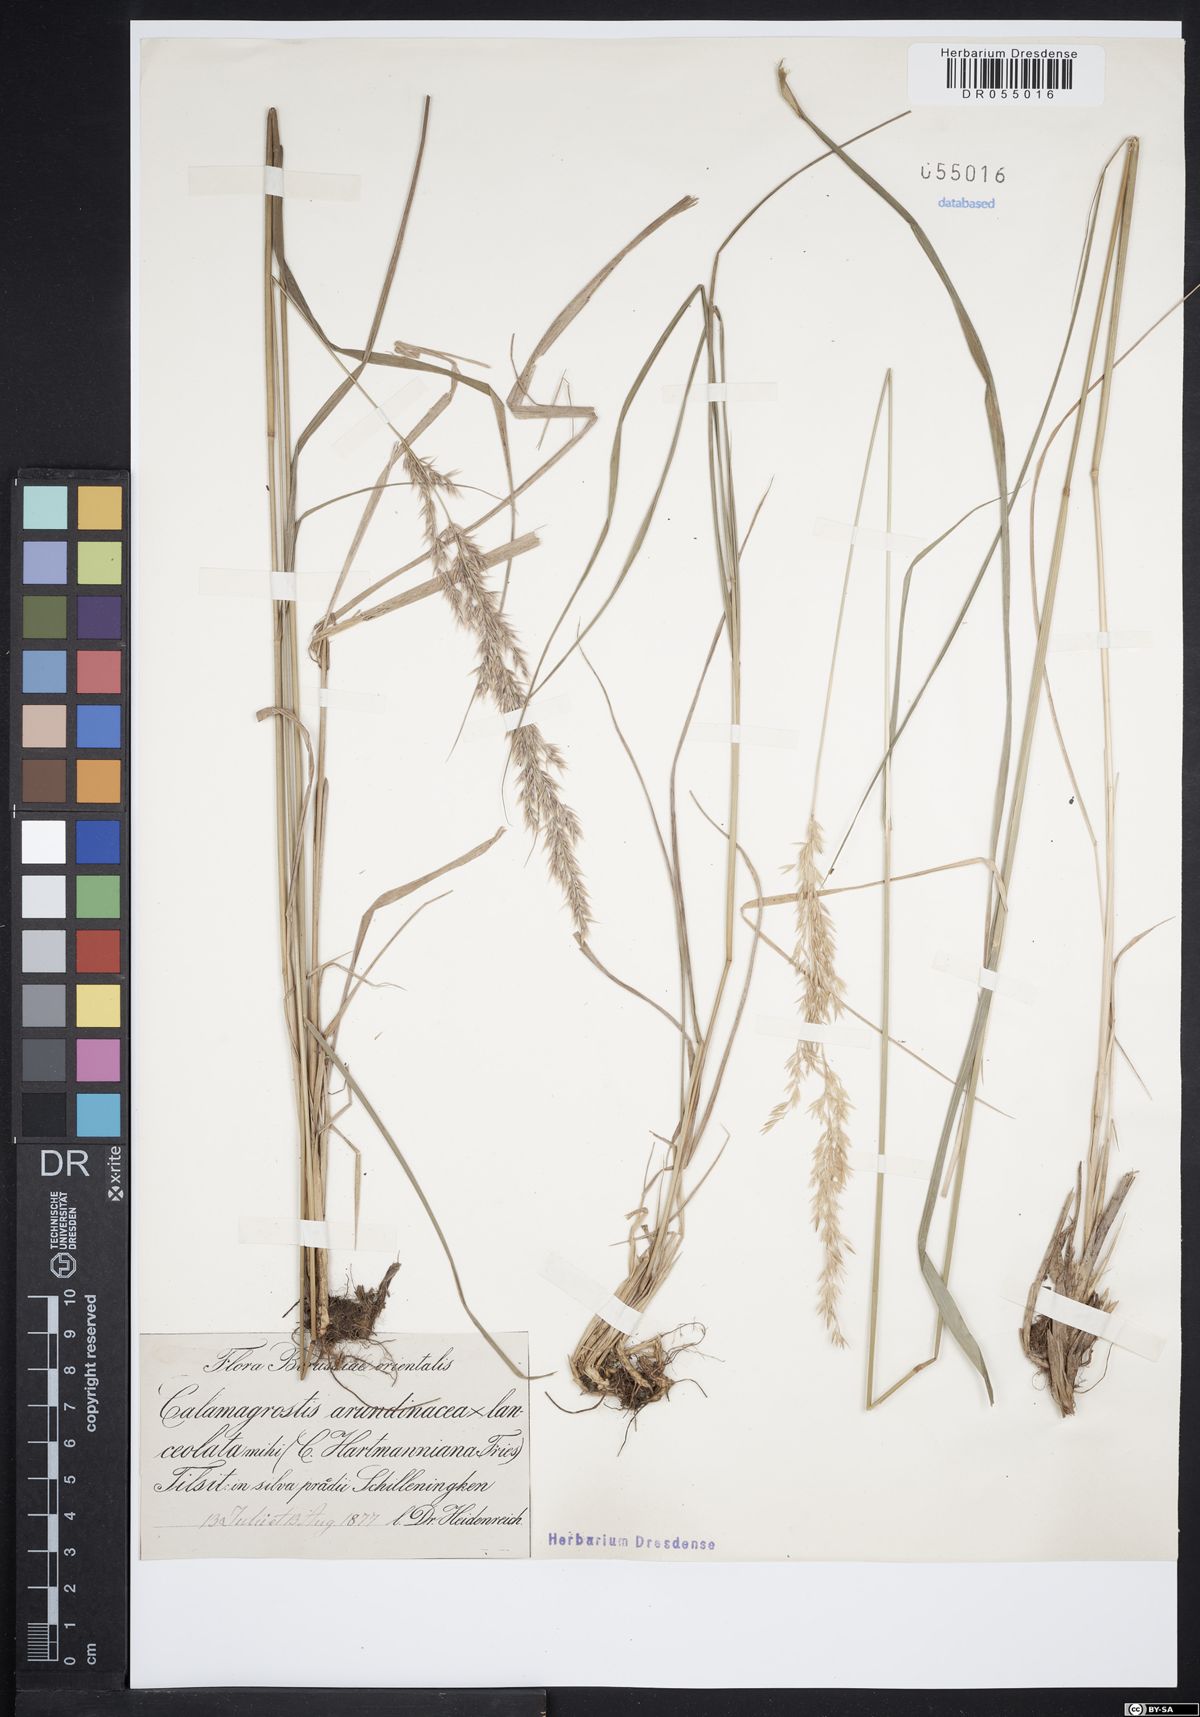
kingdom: Plantae
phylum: Tracheophyta
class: Liliopsida
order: Poales
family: Poaceae
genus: Calamagrostis
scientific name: Calamagrostis hartmaniana
